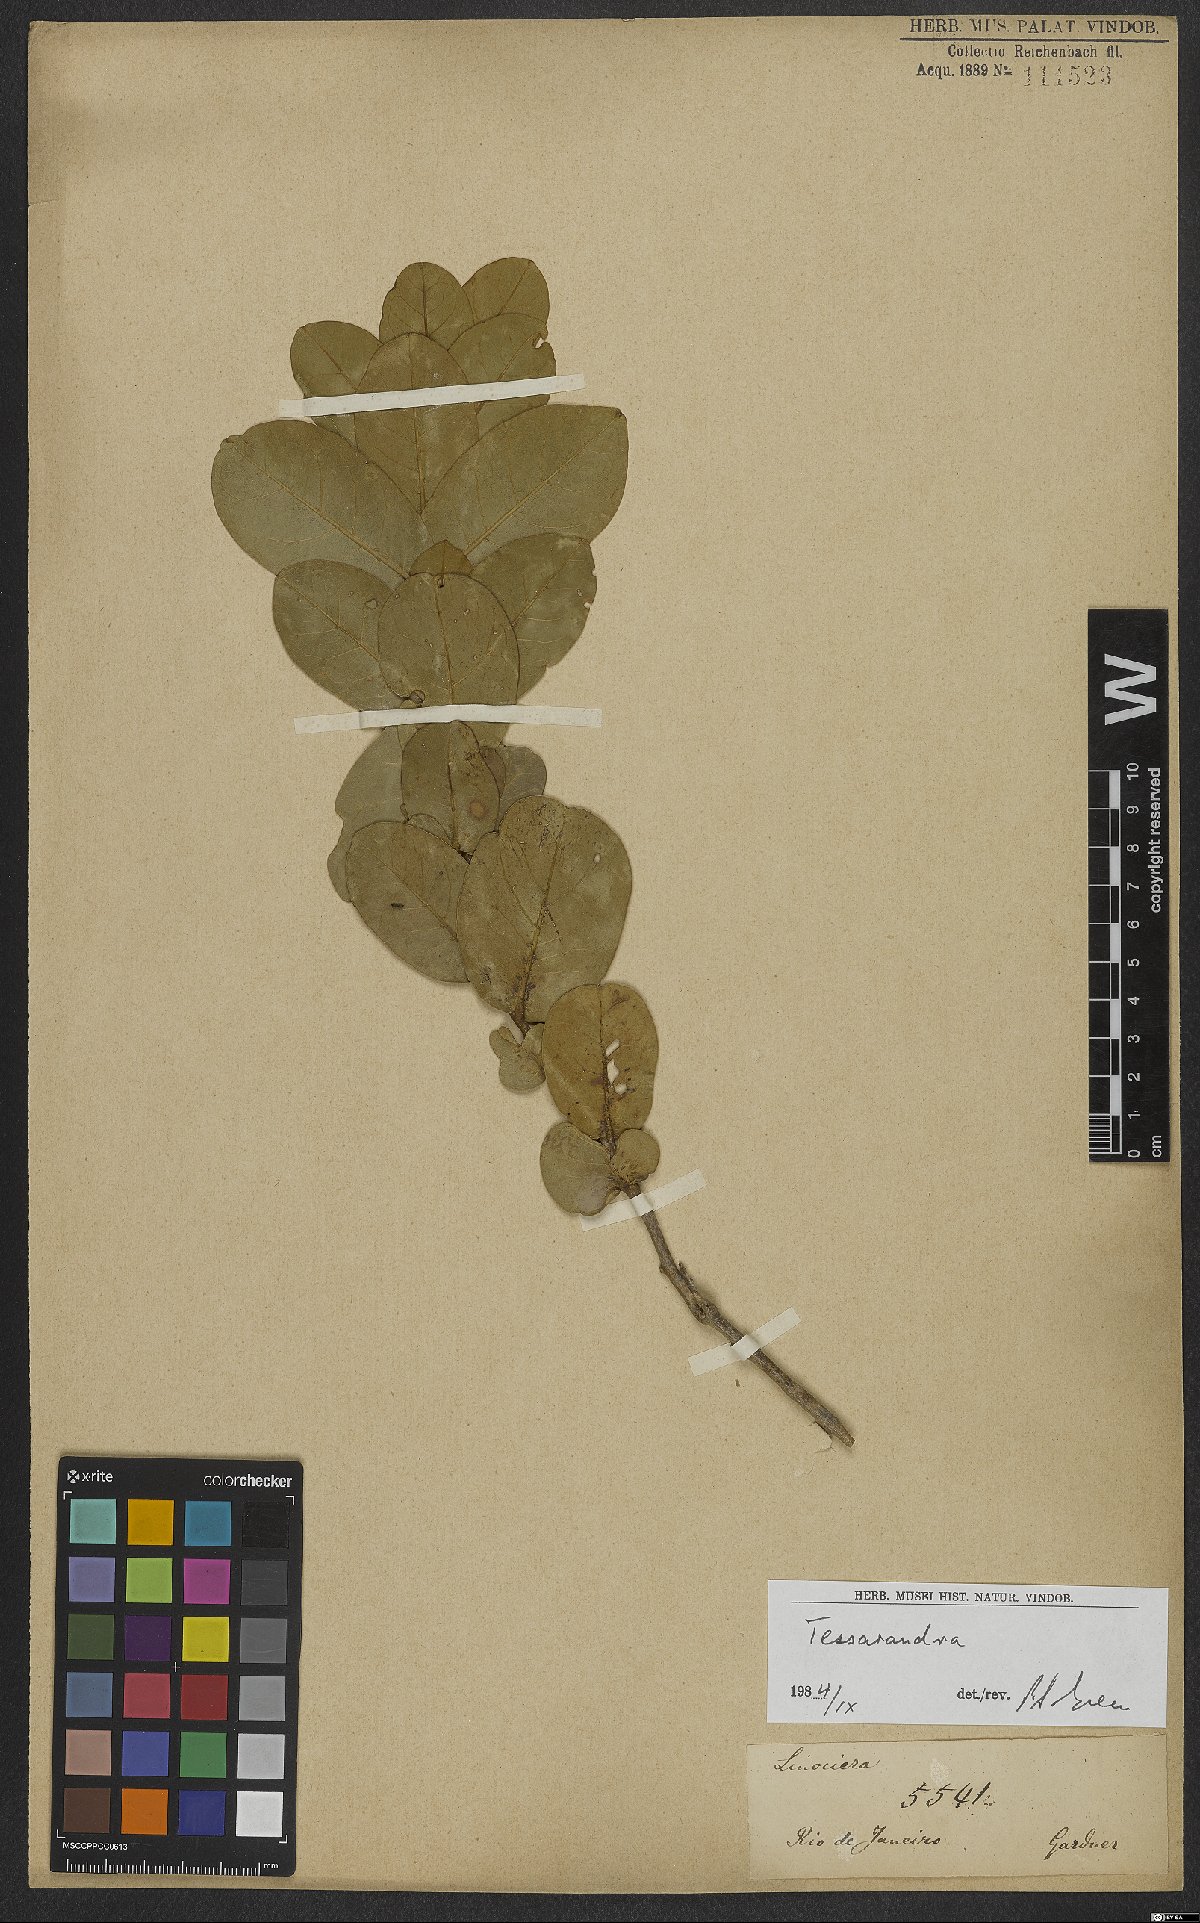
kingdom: Plantae
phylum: Tracheophyta
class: Magnoliopsida
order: Lamiales
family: Oleaceae
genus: Chionanthus
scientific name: Chionanthus
